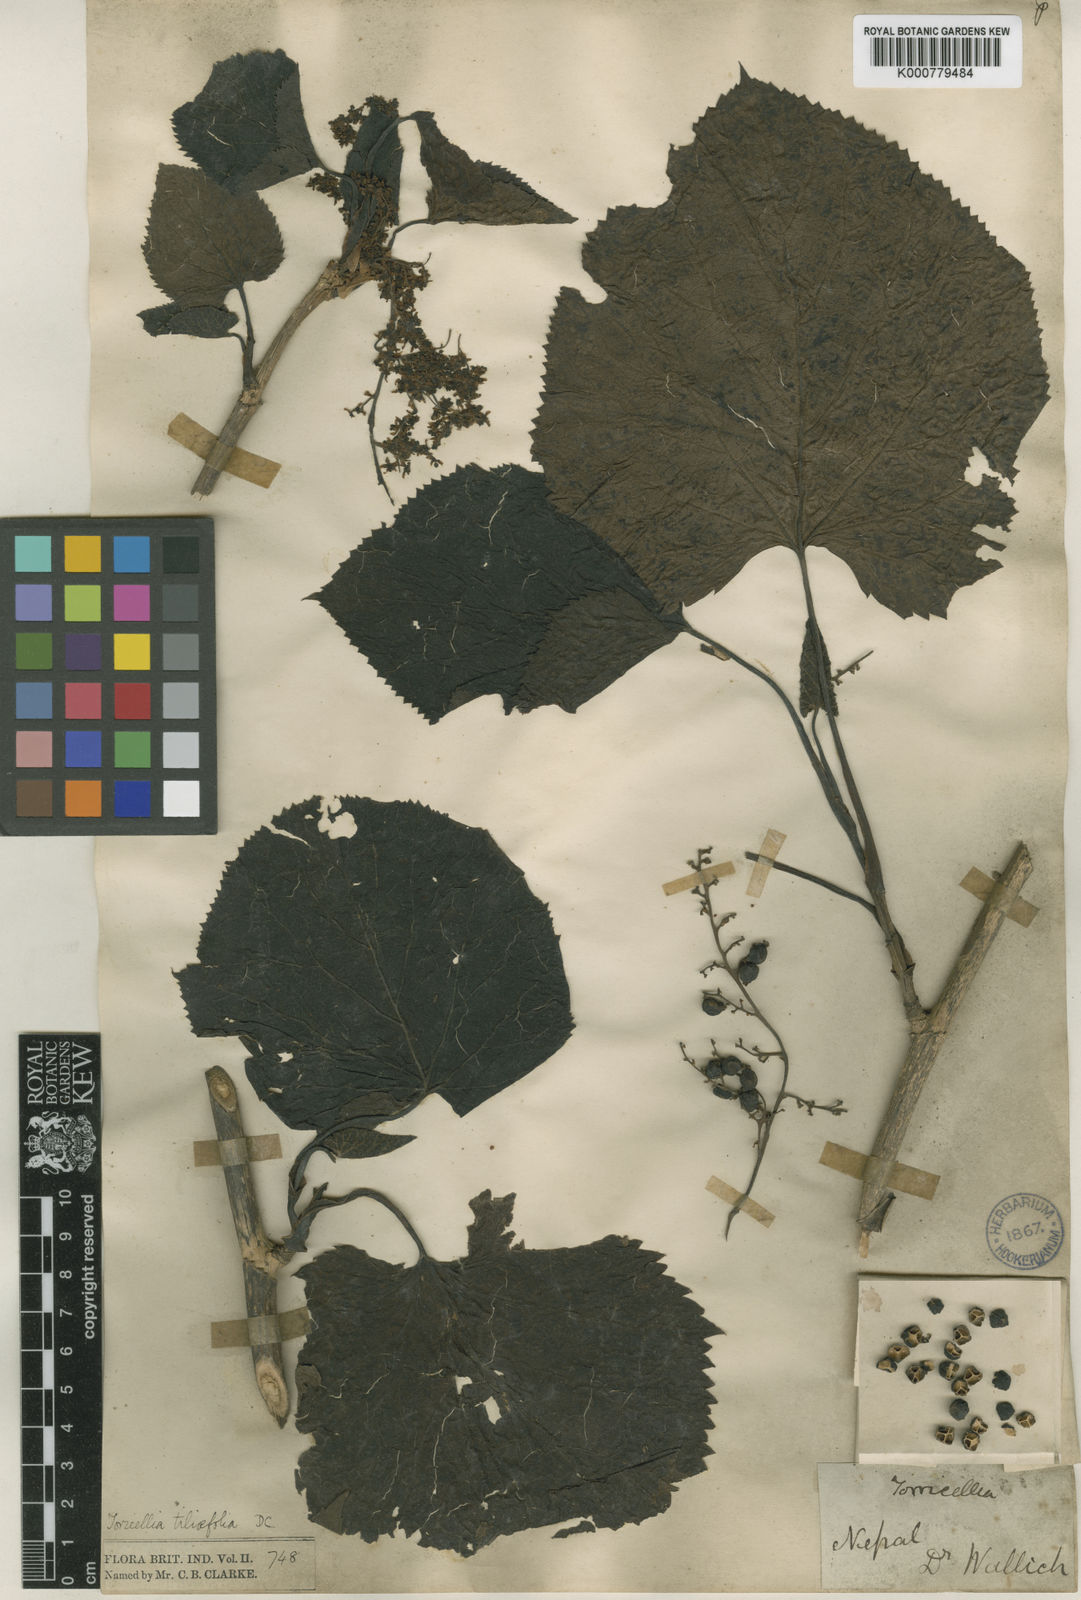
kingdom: Plantae
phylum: Tracheophyta
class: Magnoliopsida
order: Apiales
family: Torricelliaceae
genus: Torricellia
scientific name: Torricellia tiliifolia
